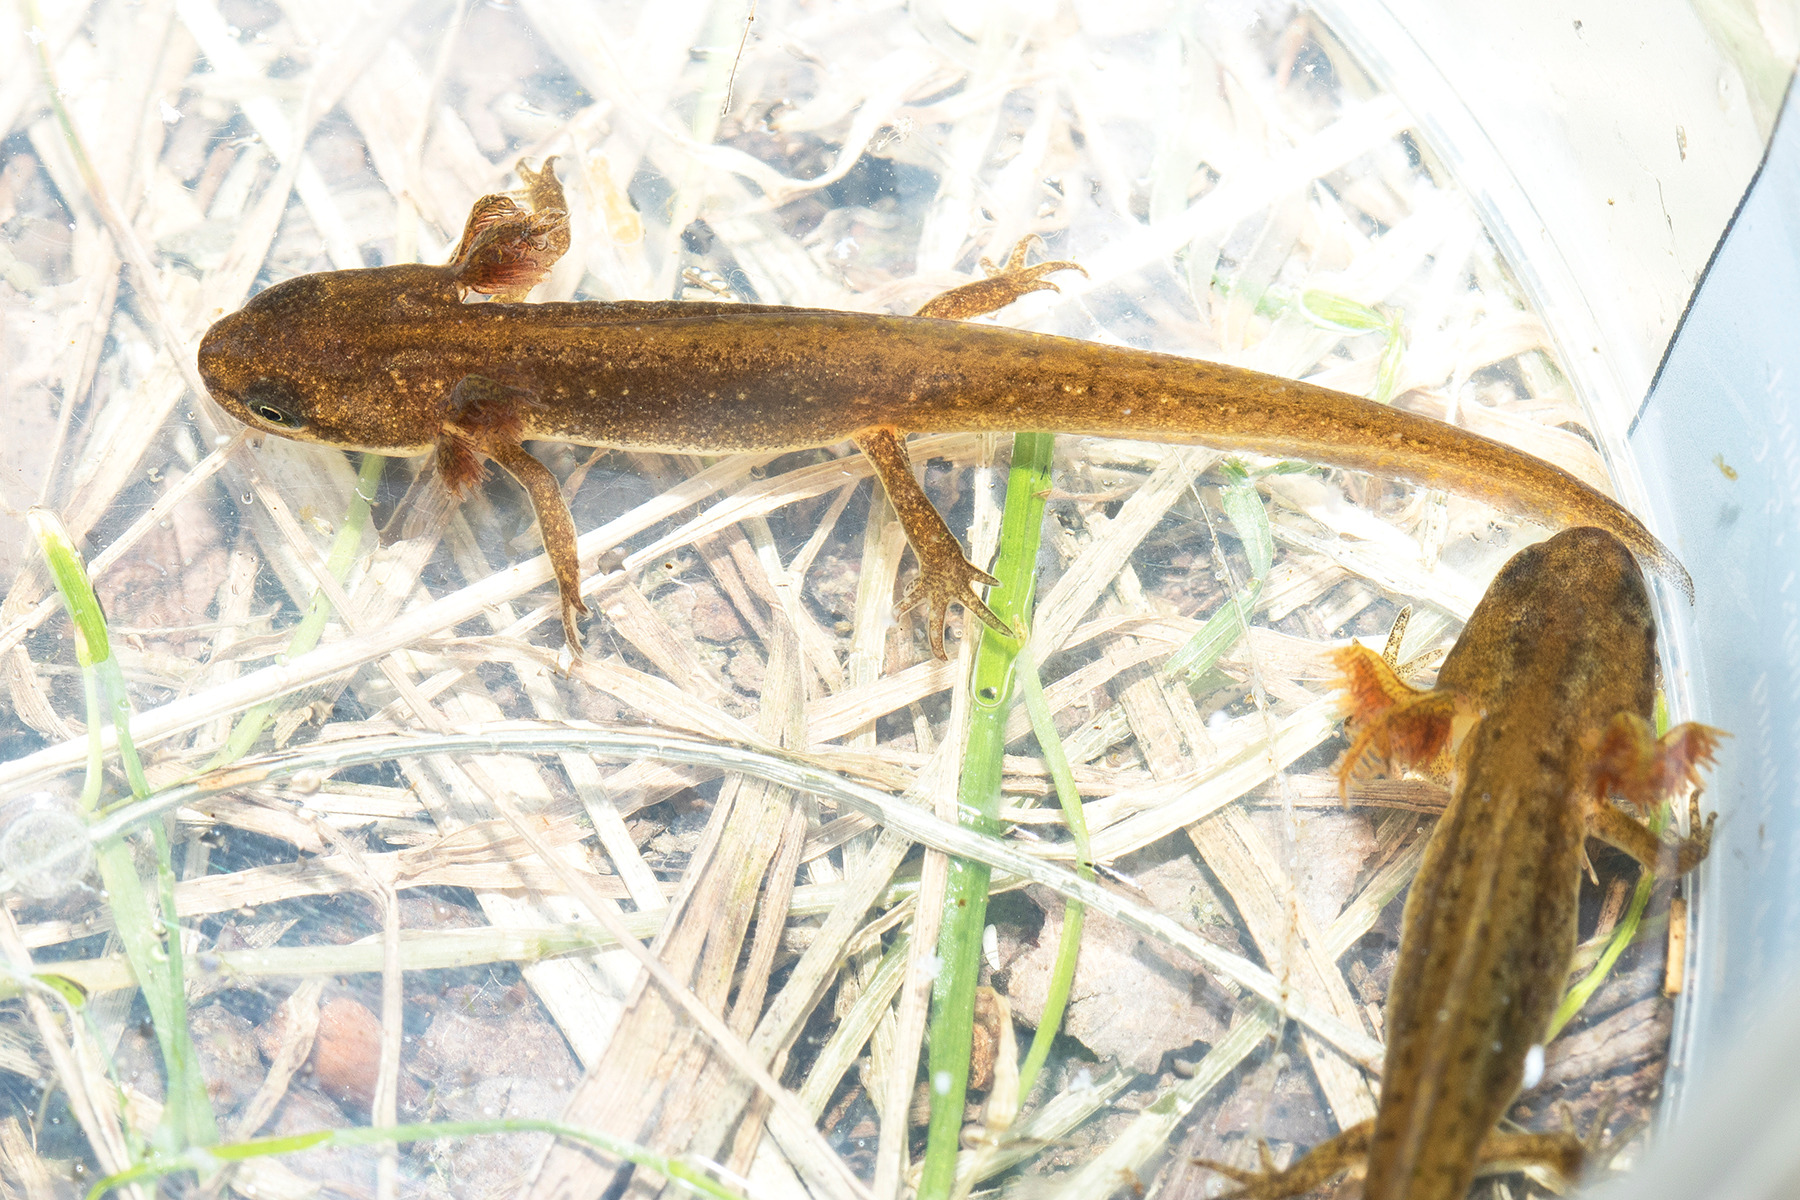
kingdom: Animalia
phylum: Chordata
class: Amphibia
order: Caudata
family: Salamandridae
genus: Lissotriton
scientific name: Lissotriton vulgaris
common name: Lille vandsalamander
